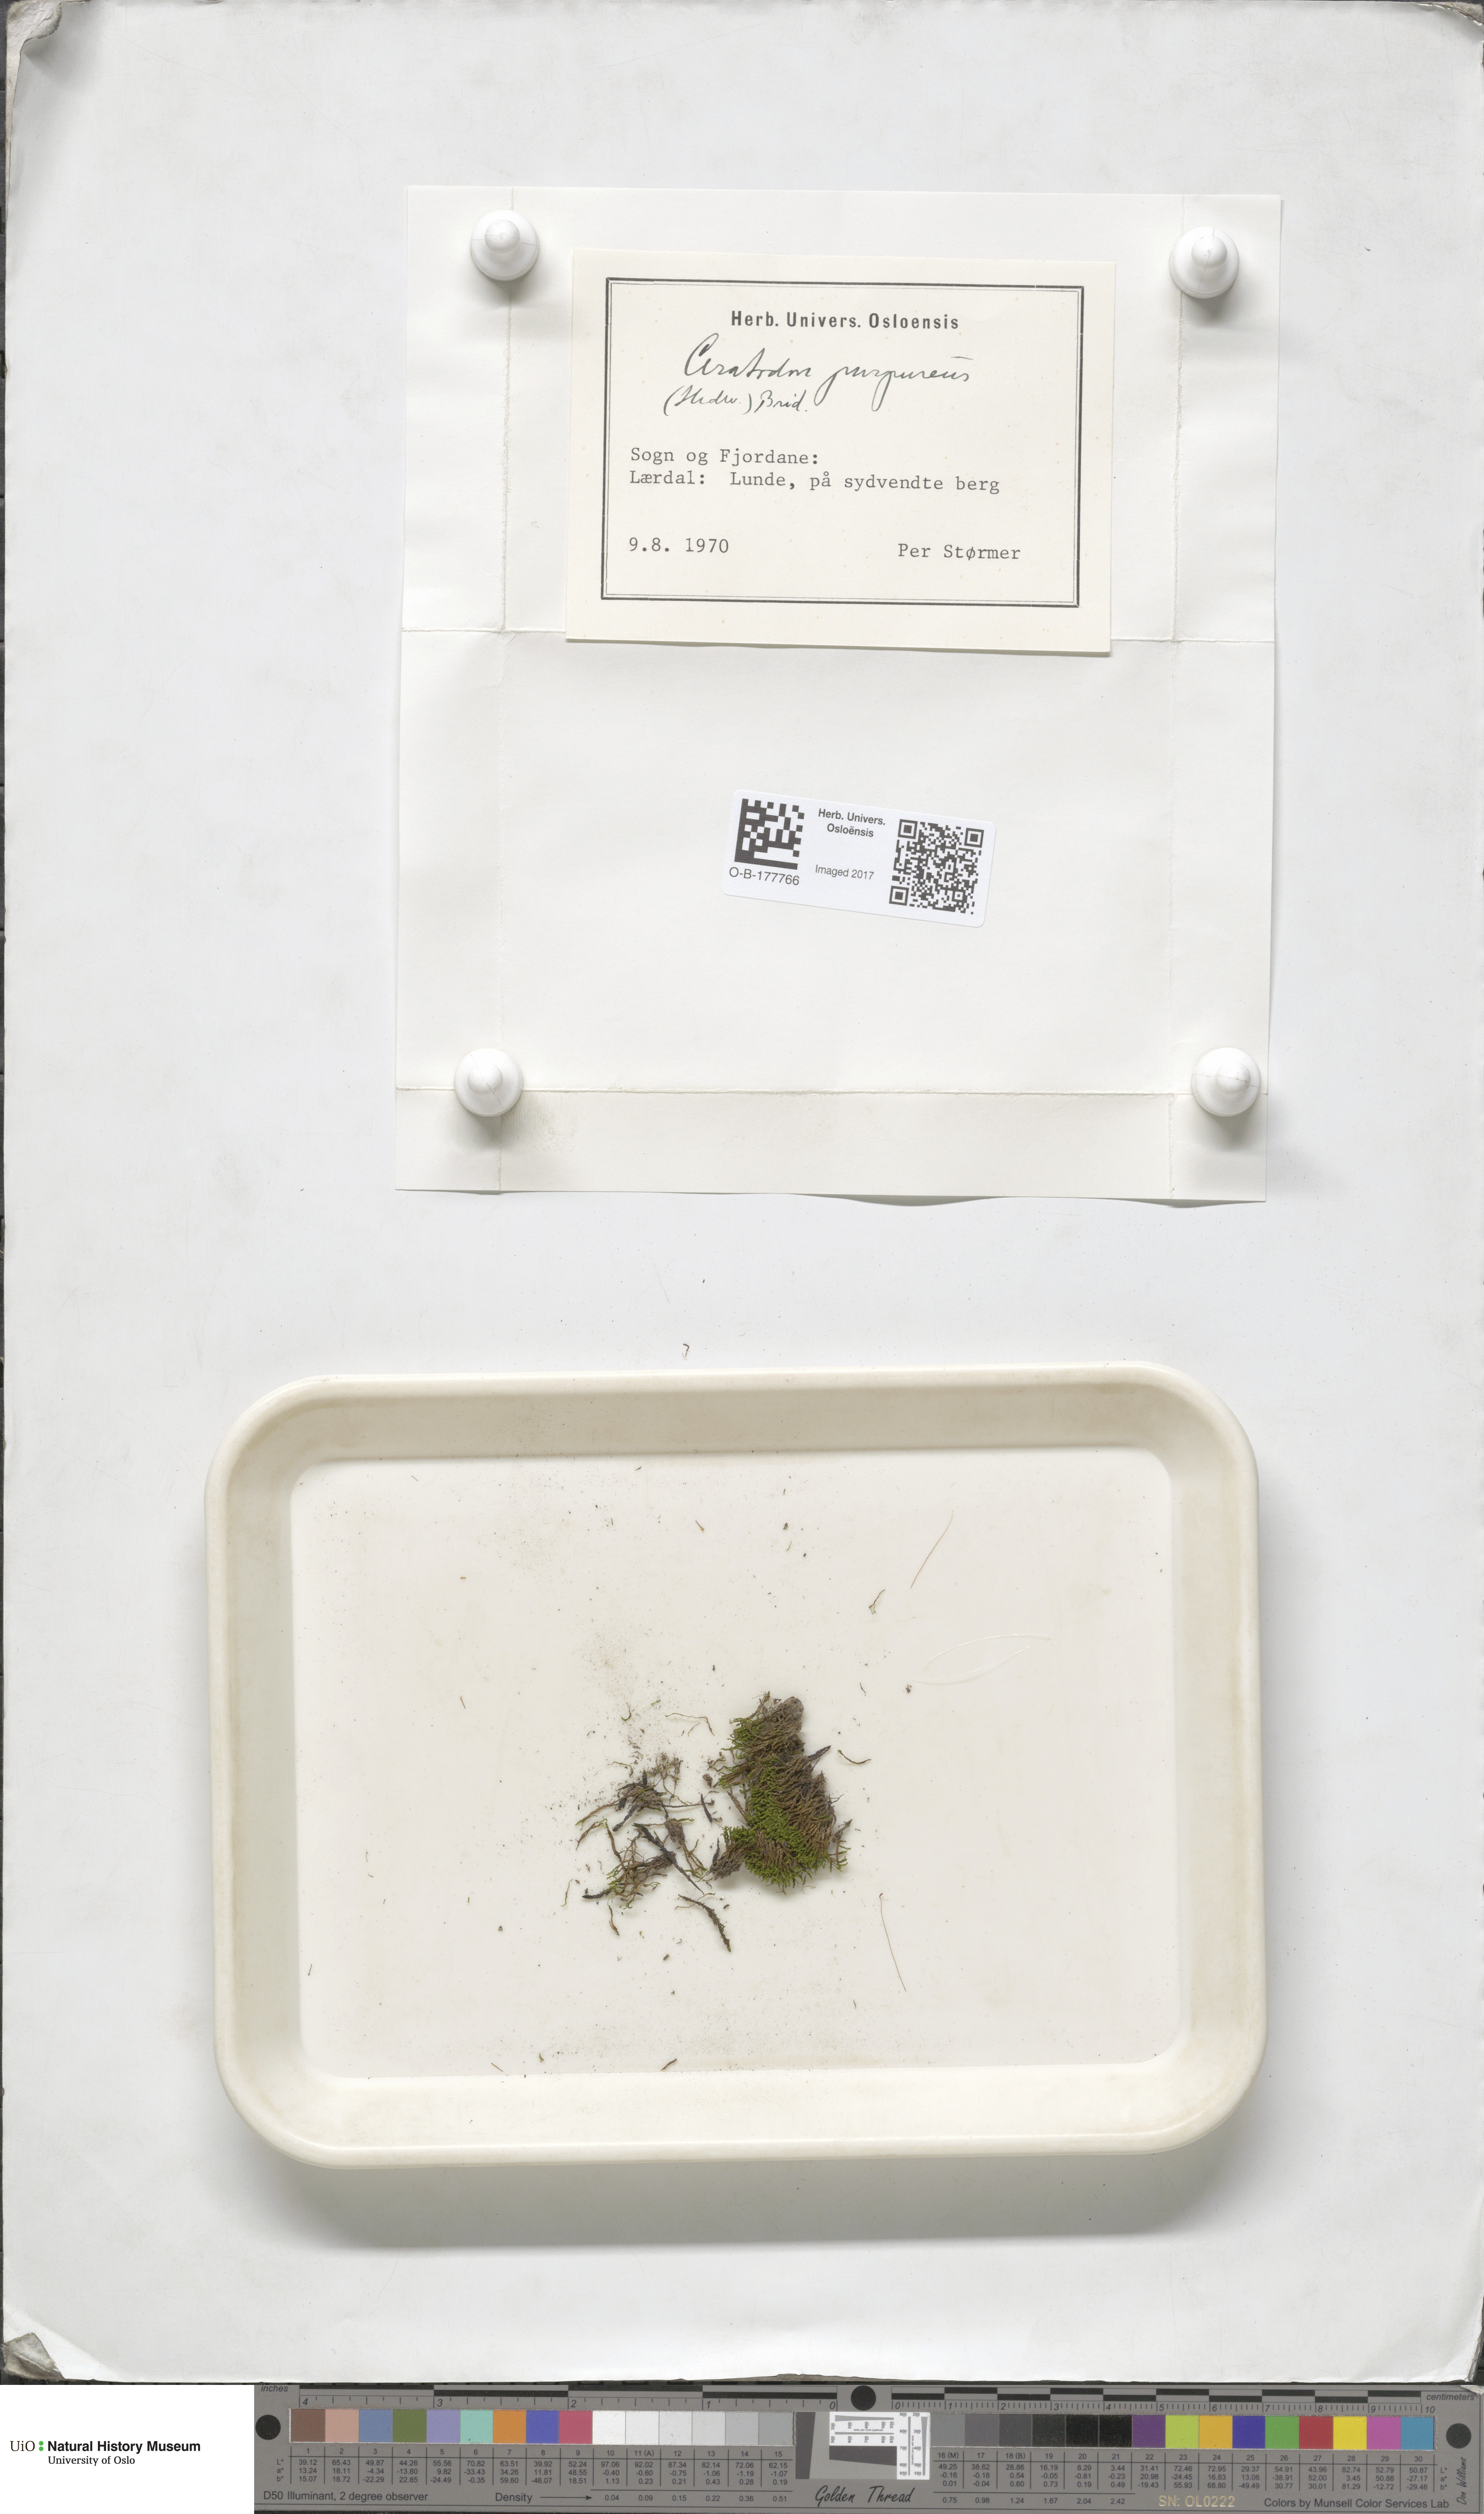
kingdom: Plantae
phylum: Bryophyta
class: Bryopsida
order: Dicranales
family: Ditrichaceae
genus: Ceratodon
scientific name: Ceratodon purpureus
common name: Redshank
